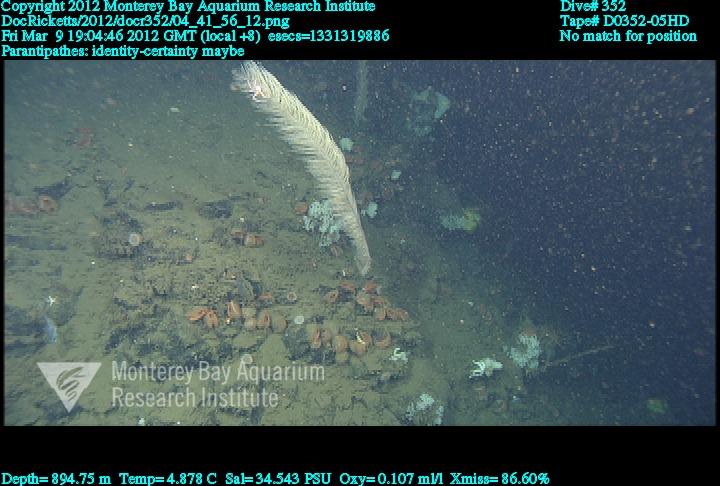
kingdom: Animalia
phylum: Cnidaria
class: Anthozoa
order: Antipatharia
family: Schizopathidae
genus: Parantipathes
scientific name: Parantipathes
